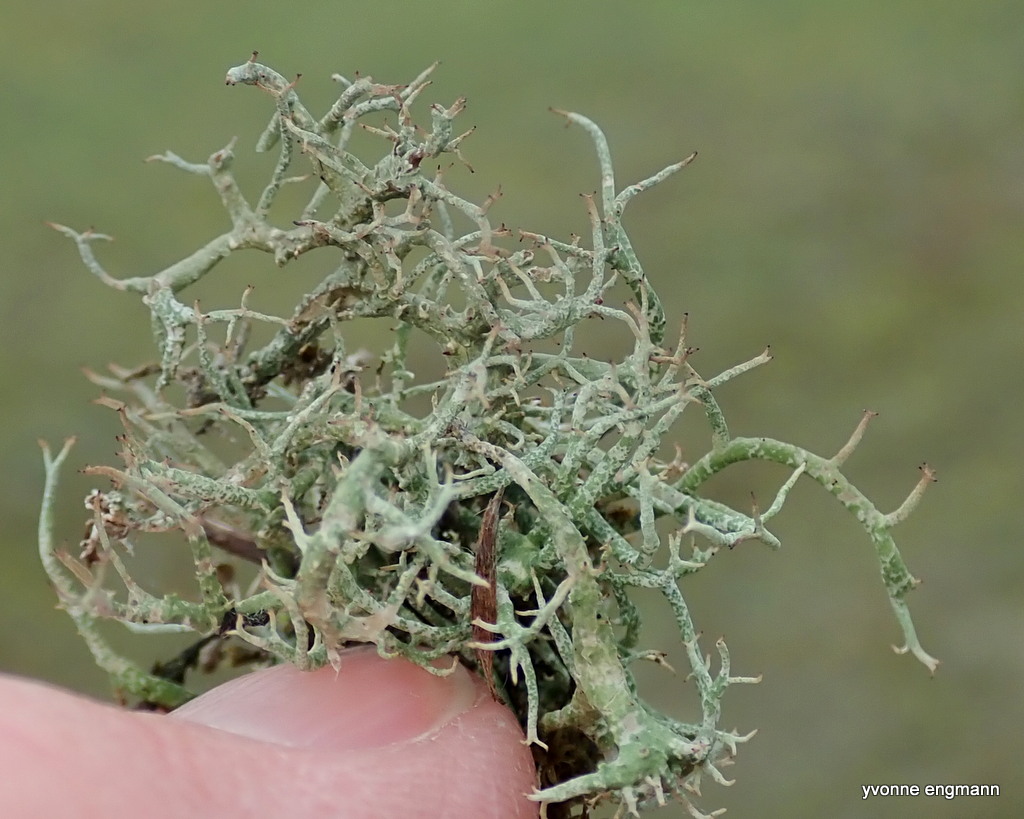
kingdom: Fungi
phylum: Ascomycota
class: Lecanoromycetes
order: Lecanorales
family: Cladoniaceae
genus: Cladonia
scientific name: Cladonia rangiformis
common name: spættet bægerlav
